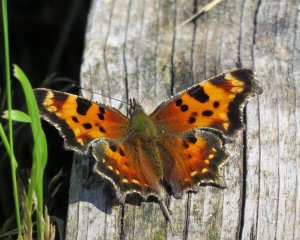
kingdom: Animalia
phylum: Arthropoda
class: Insecta
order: Lepidoptera
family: Nymphalidae
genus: Polygonia
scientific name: Polygonia progne
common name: Gray Comma
